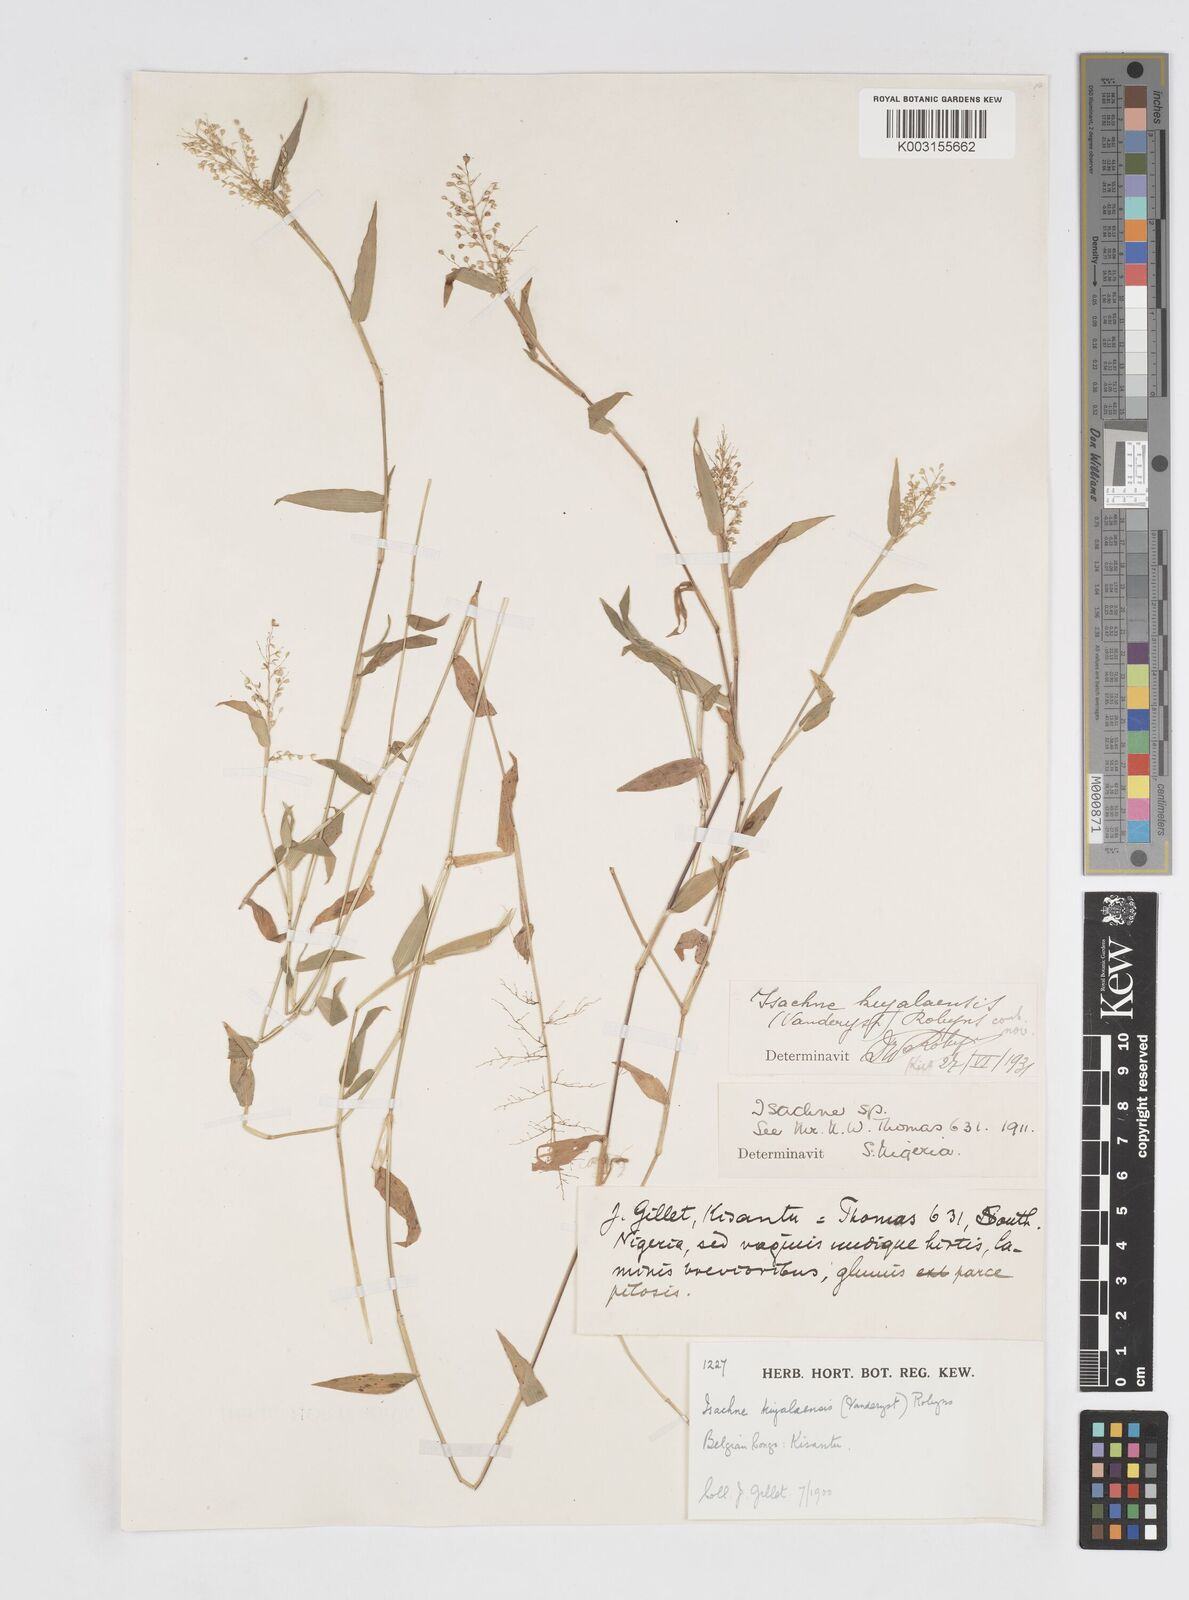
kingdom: Plantae
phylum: Tracheophyta
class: Liliopsida
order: Poales
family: Poaceae
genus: Isachne
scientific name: Isachne kiyalaensis
